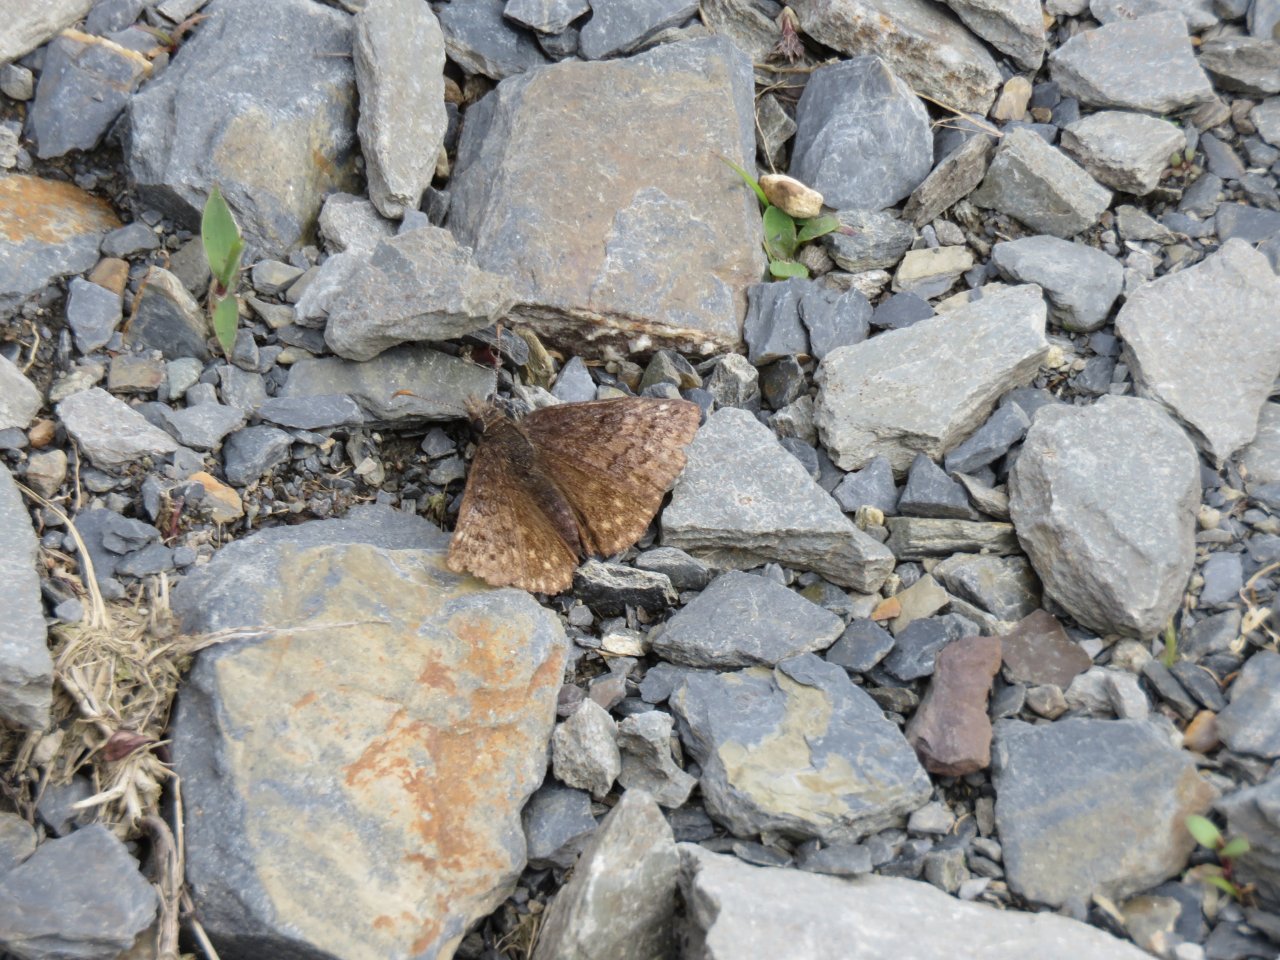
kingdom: Animalia
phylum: Arthropoda
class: Insecta
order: Lepidoptera
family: Hesperiidae
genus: Erynnis
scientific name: Erynnis icelus
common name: Dreamy Duskywing
